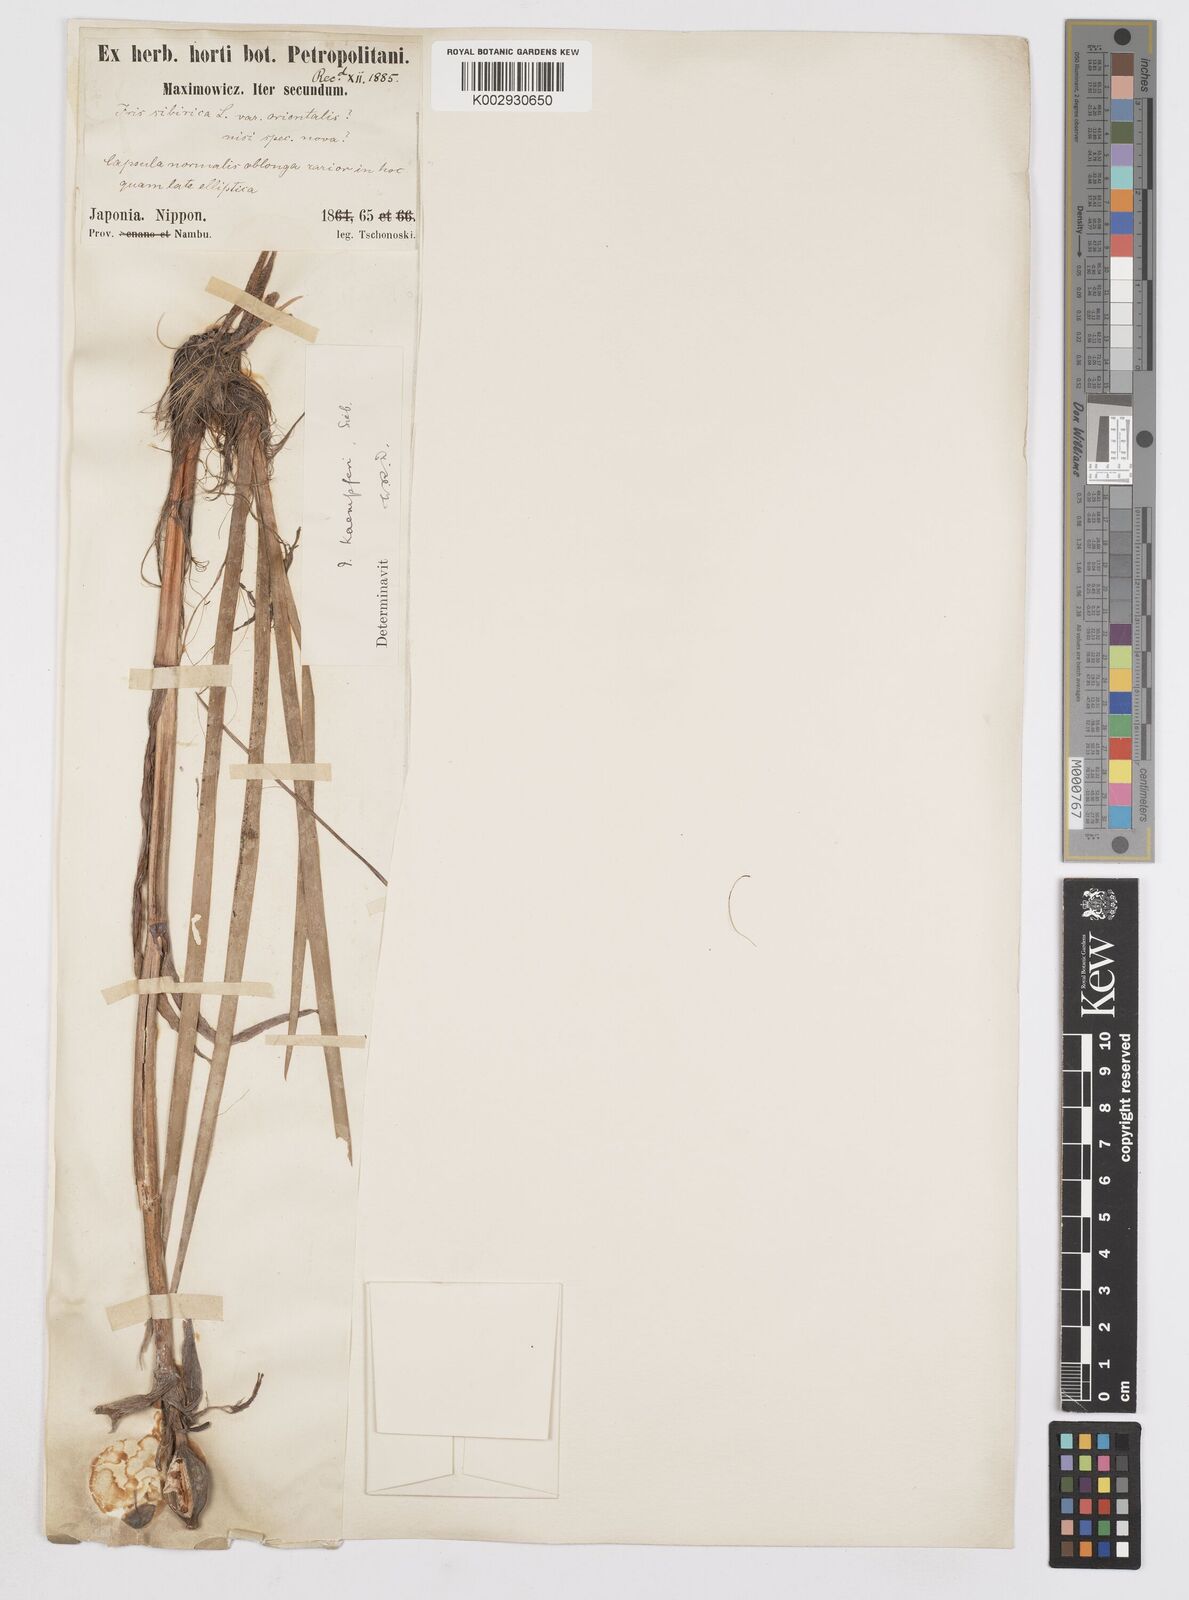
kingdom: Plantae
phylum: Tracheophyta
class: Liliopsida
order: Asparagales
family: Iridaceae
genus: Iris
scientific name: Iris ensata
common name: Beaked iris
